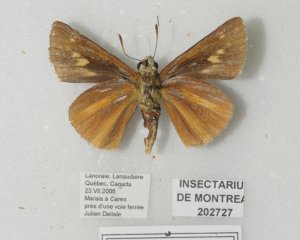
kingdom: Animalia
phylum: Arthropoda
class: Insecta
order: Lepidoptera
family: Hesperiidae
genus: Euphyes
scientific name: Euphyes dion
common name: Dion Skipper
